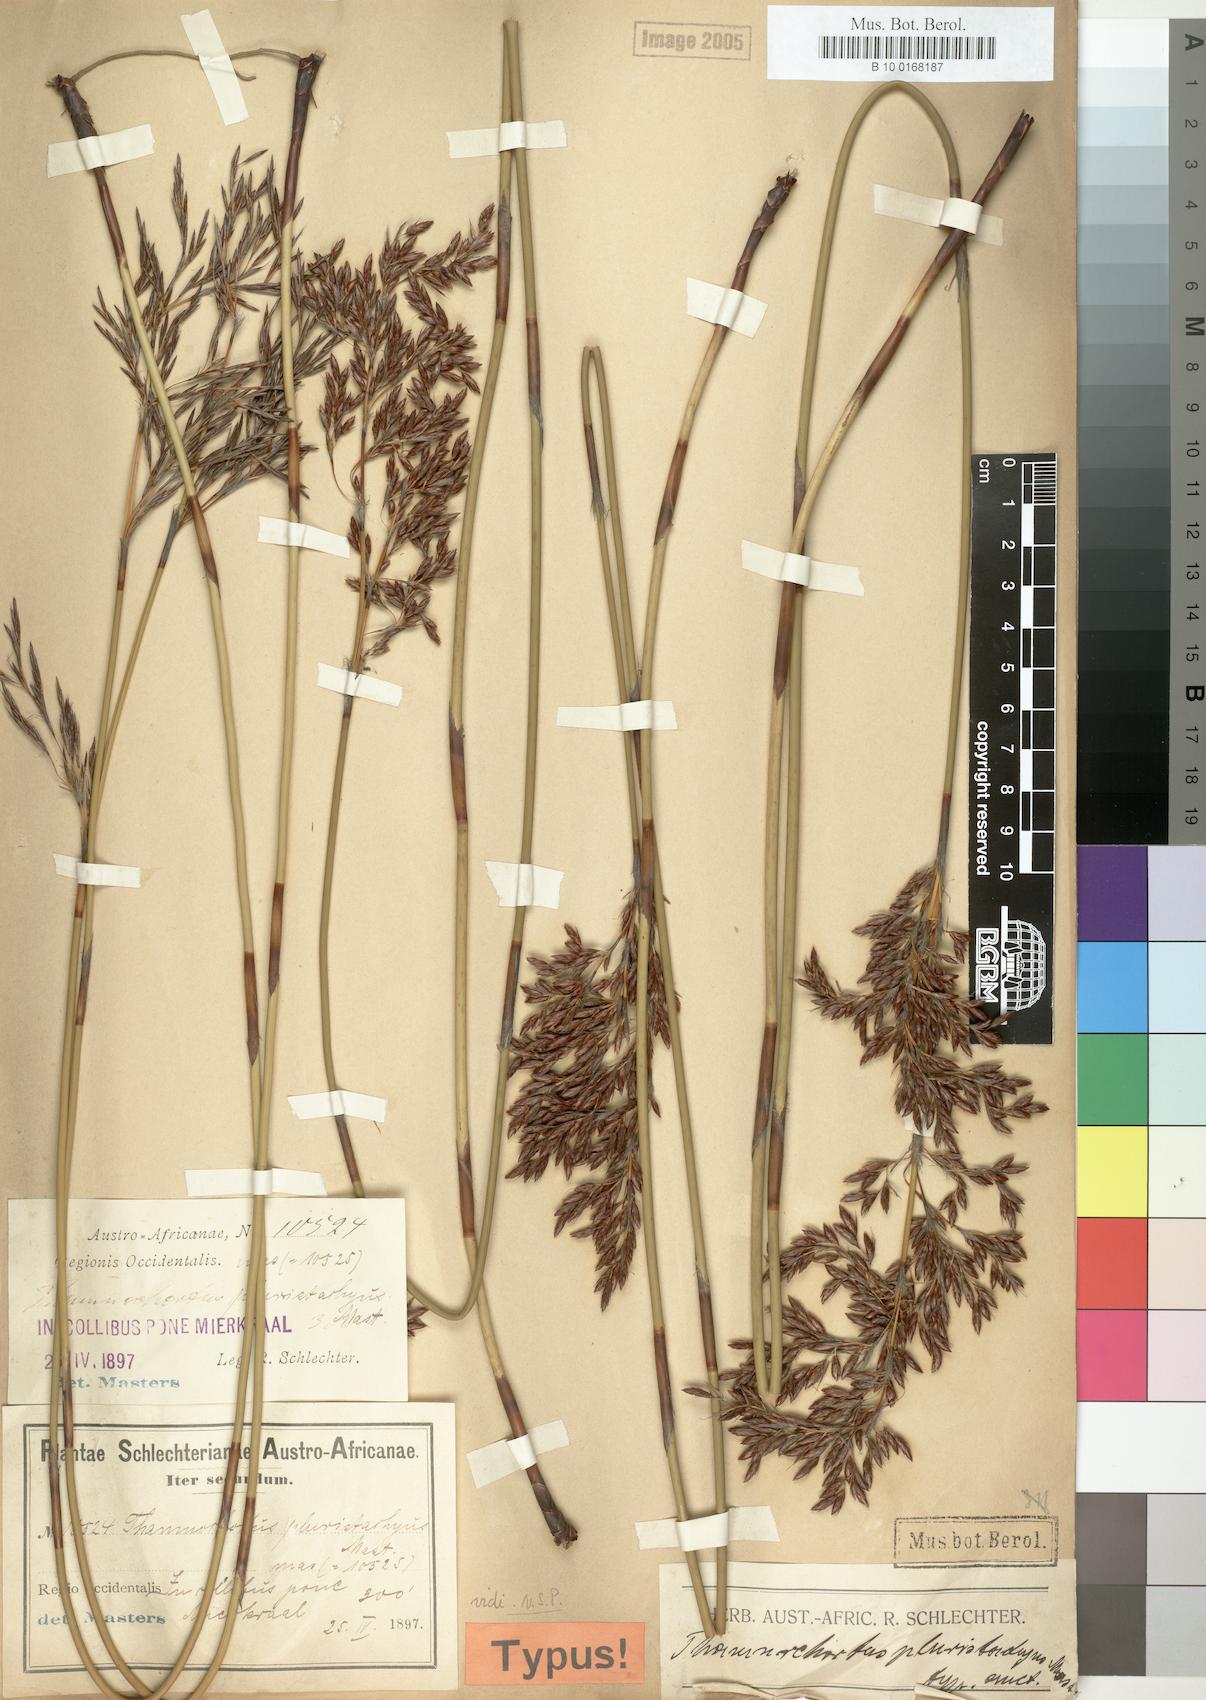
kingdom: Plantae
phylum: Tracheophyta
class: Liliopsida
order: Poales
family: Restionaceae
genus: Thamnochortus
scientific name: Thamnochortus pluristachyus
